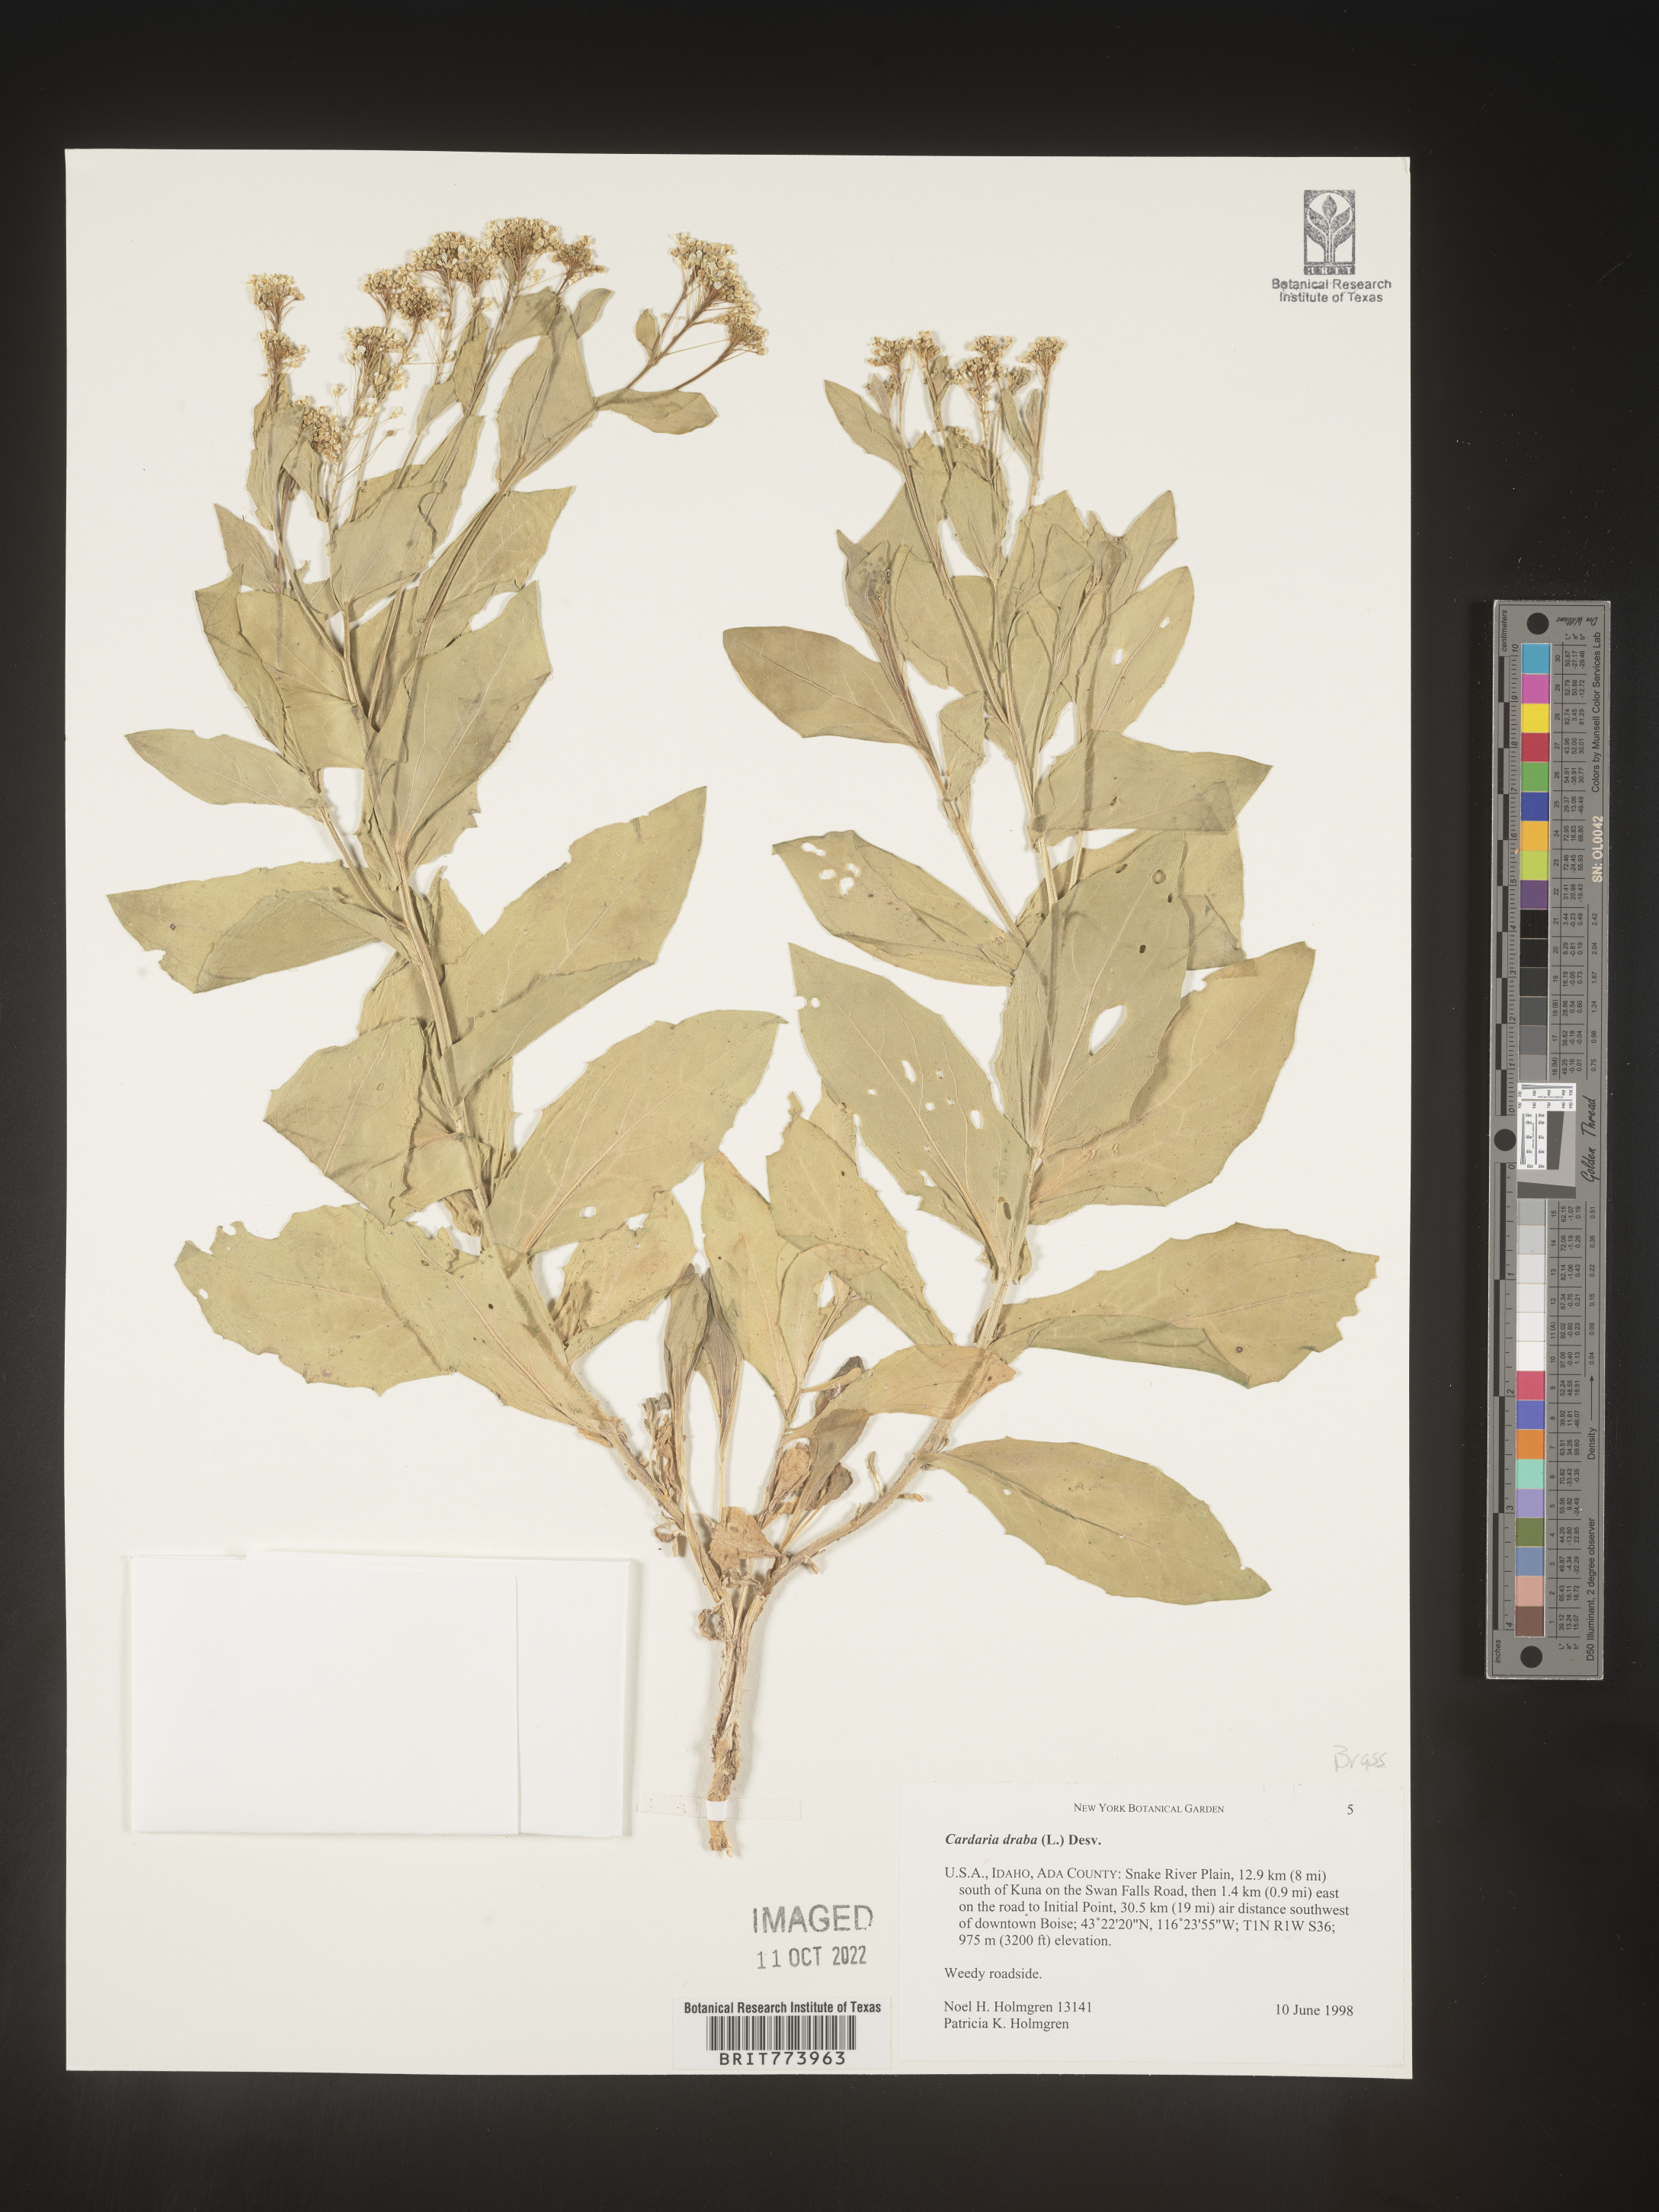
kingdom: Plantae
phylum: Tracheophyta
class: Magnoliopsida
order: Brassicales
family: Brassicaceae
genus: Lepidium
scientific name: Lepidium draba
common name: Hoary cress
